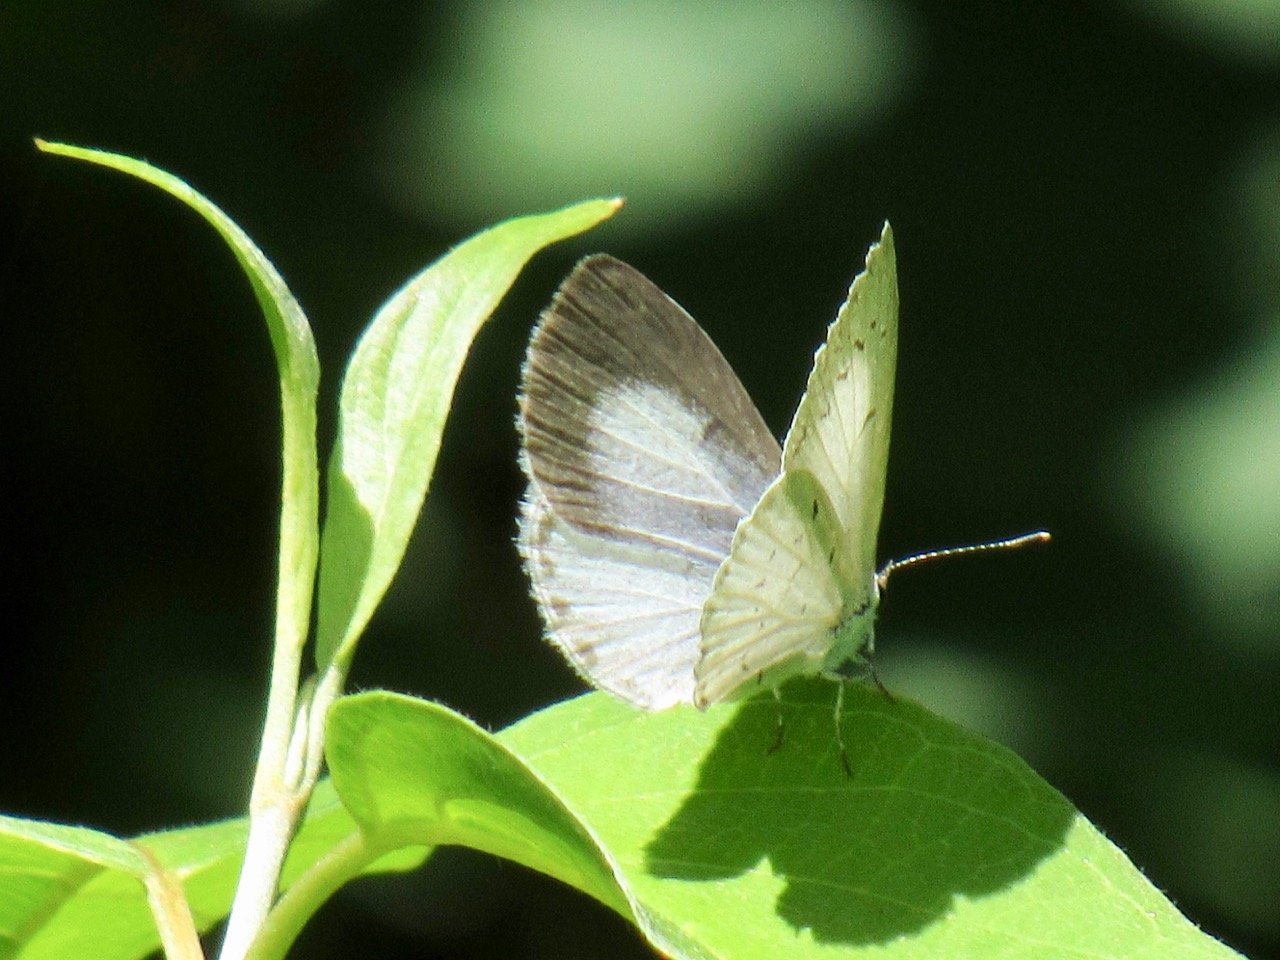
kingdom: Animalia
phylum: Arthropoda
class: Insecta
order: Lepidoptera
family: Lycaenidae
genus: Celastrina
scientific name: Celastrina
